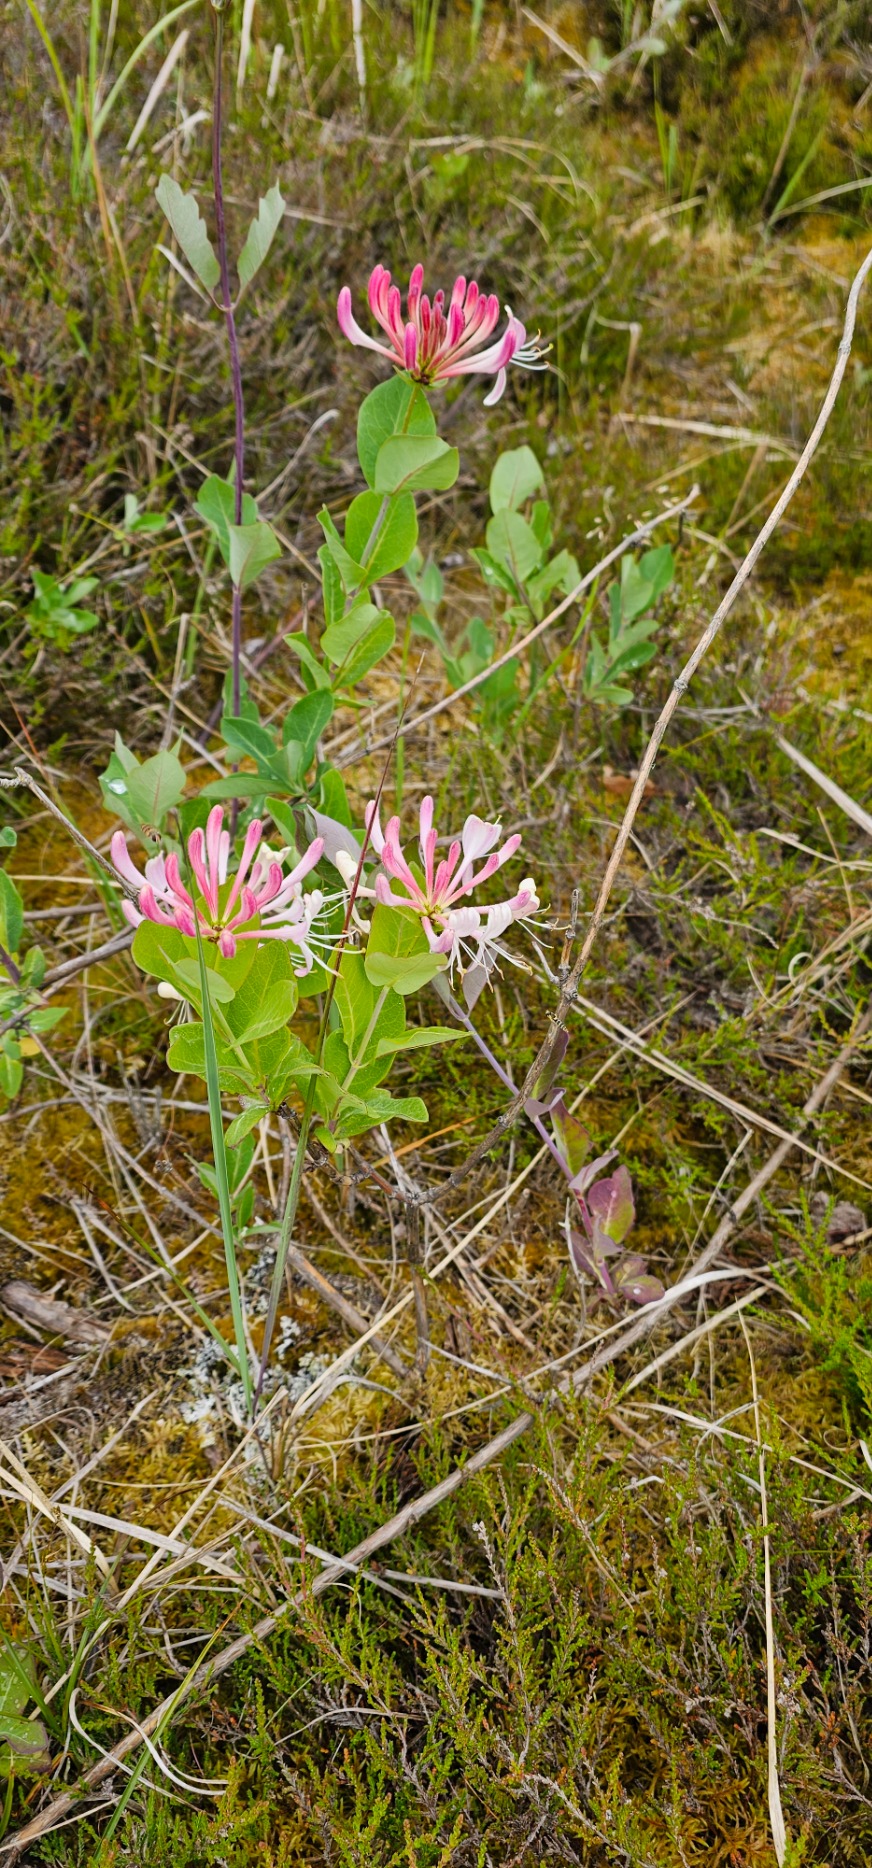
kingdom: Plantae
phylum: Tracheophyta
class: Magnoliopsida
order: Dipsacales
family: Caprifoliaceae
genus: Lonicera
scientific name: Lonicera periclymenum
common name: Almindelig gedeblad
